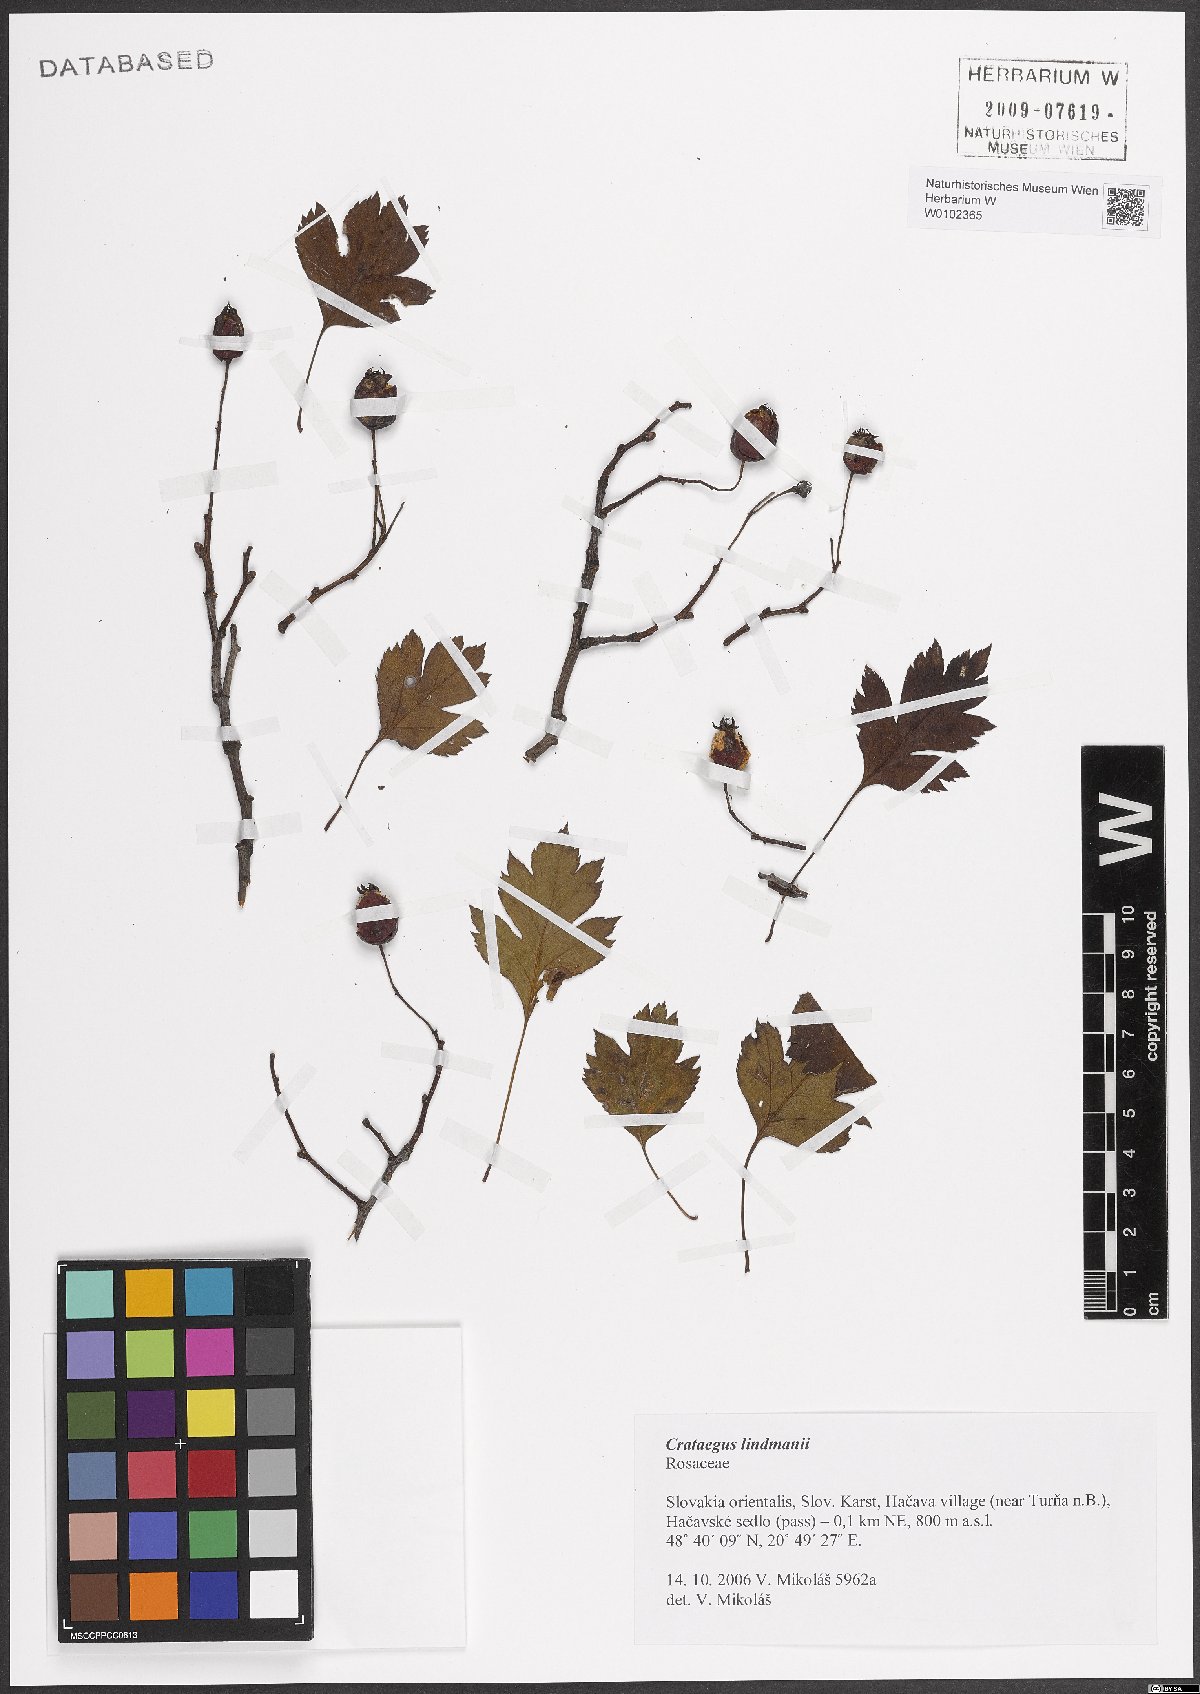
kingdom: Plantae
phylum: Tracheophyta
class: Magnoliopsida
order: Rosales
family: Rosaceae
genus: Crataegus
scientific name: Crataegus lindmanii
